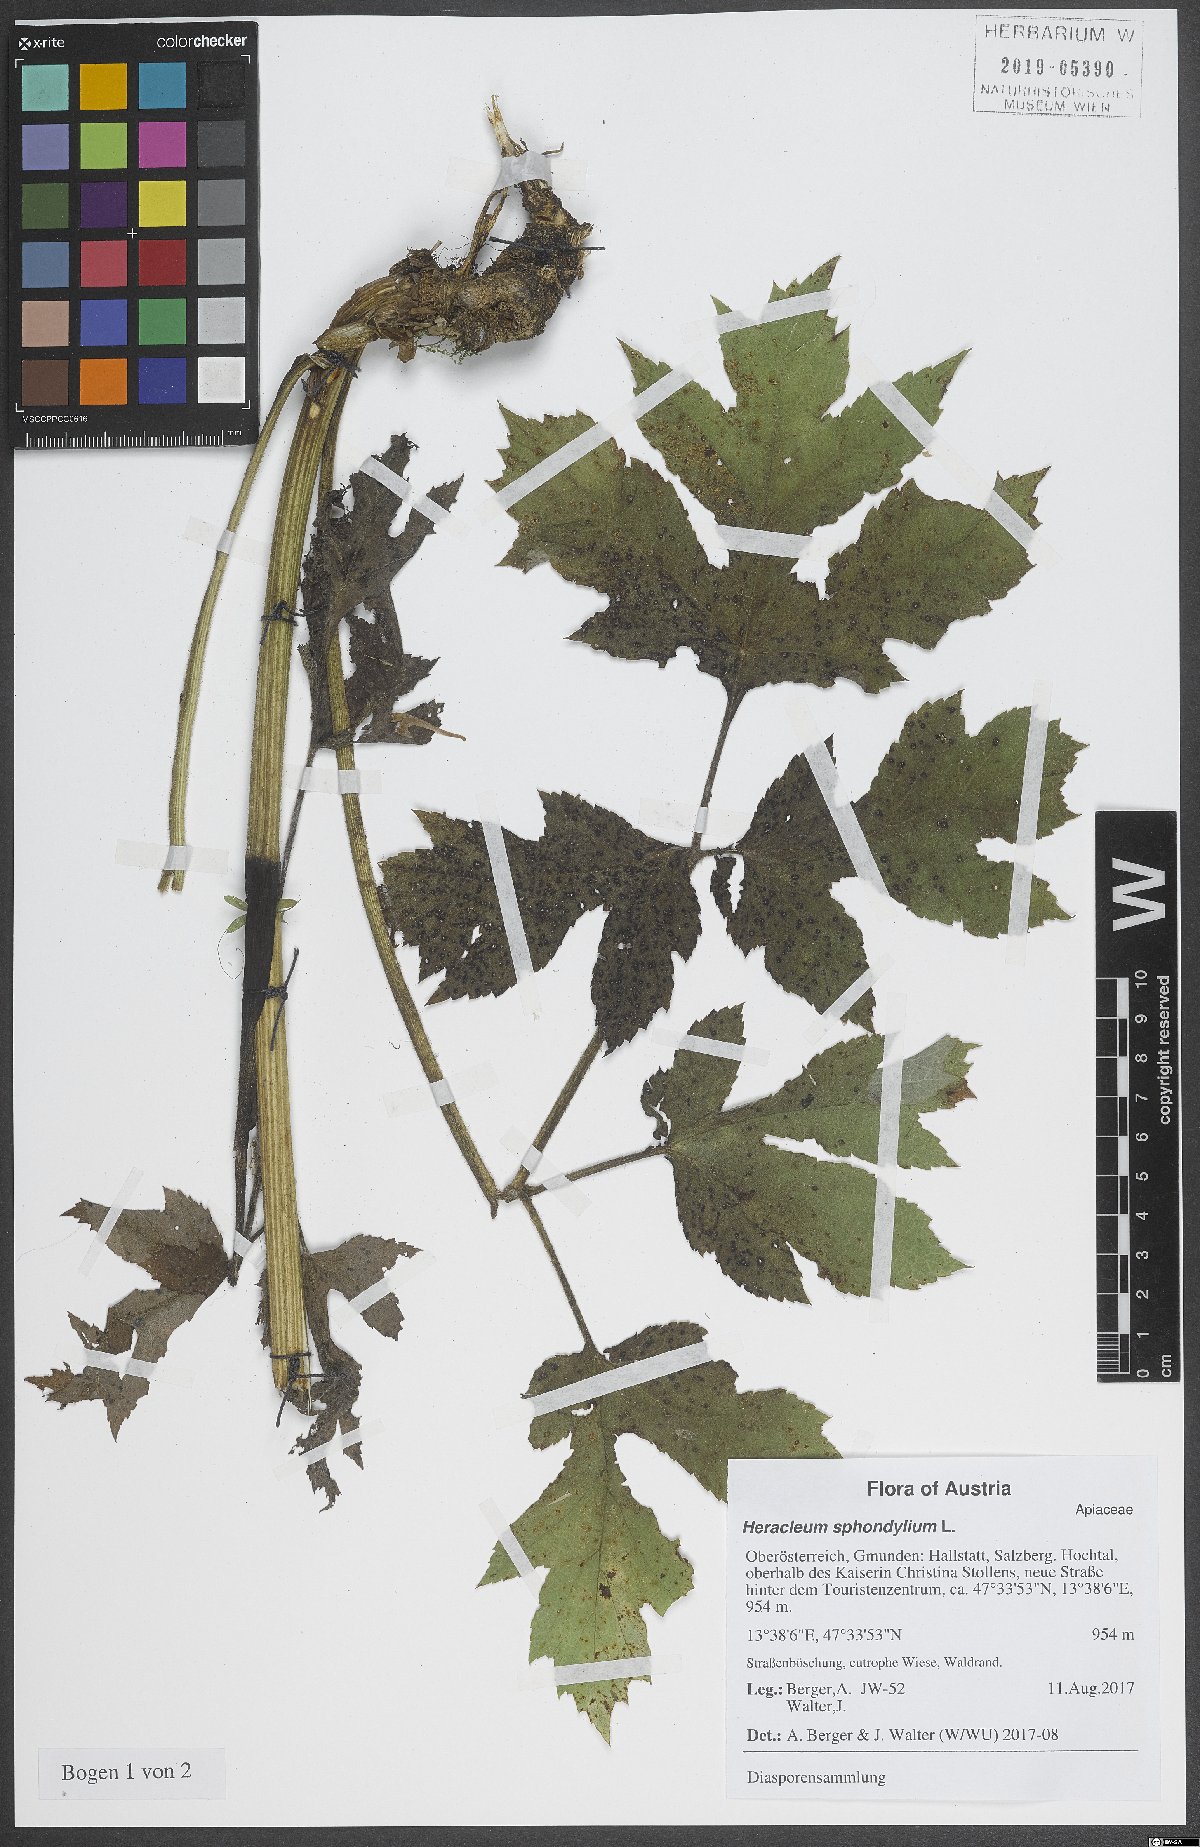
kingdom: Plantae
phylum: Tracheophyta
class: Magnoliopsida
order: Apiales
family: Apiaceae
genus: Heracleum
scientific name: Heracleum sphondylium
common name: Hogweed
